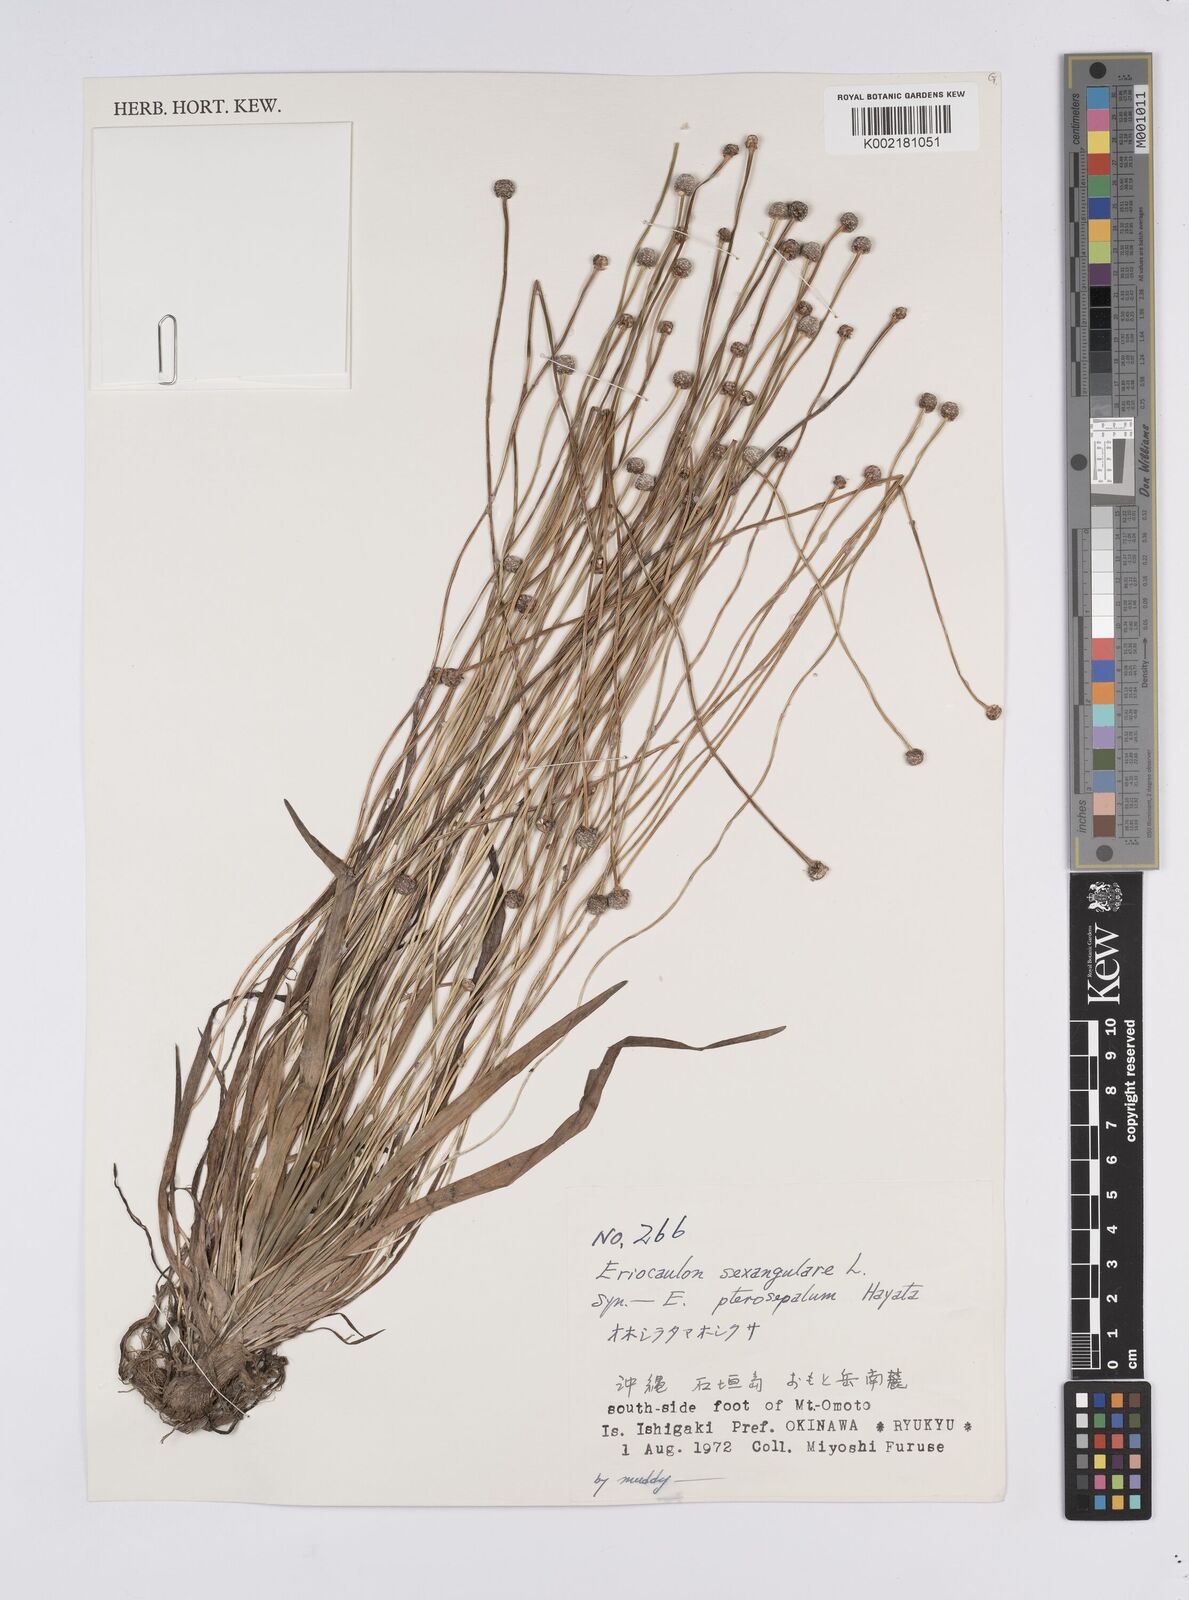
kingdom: Plantae
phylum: Tracheophyta
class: Liliopsida
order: Poales
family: Eriocaulaceae
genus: Eriocaulon
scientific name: Eriocaulon sexangulare
